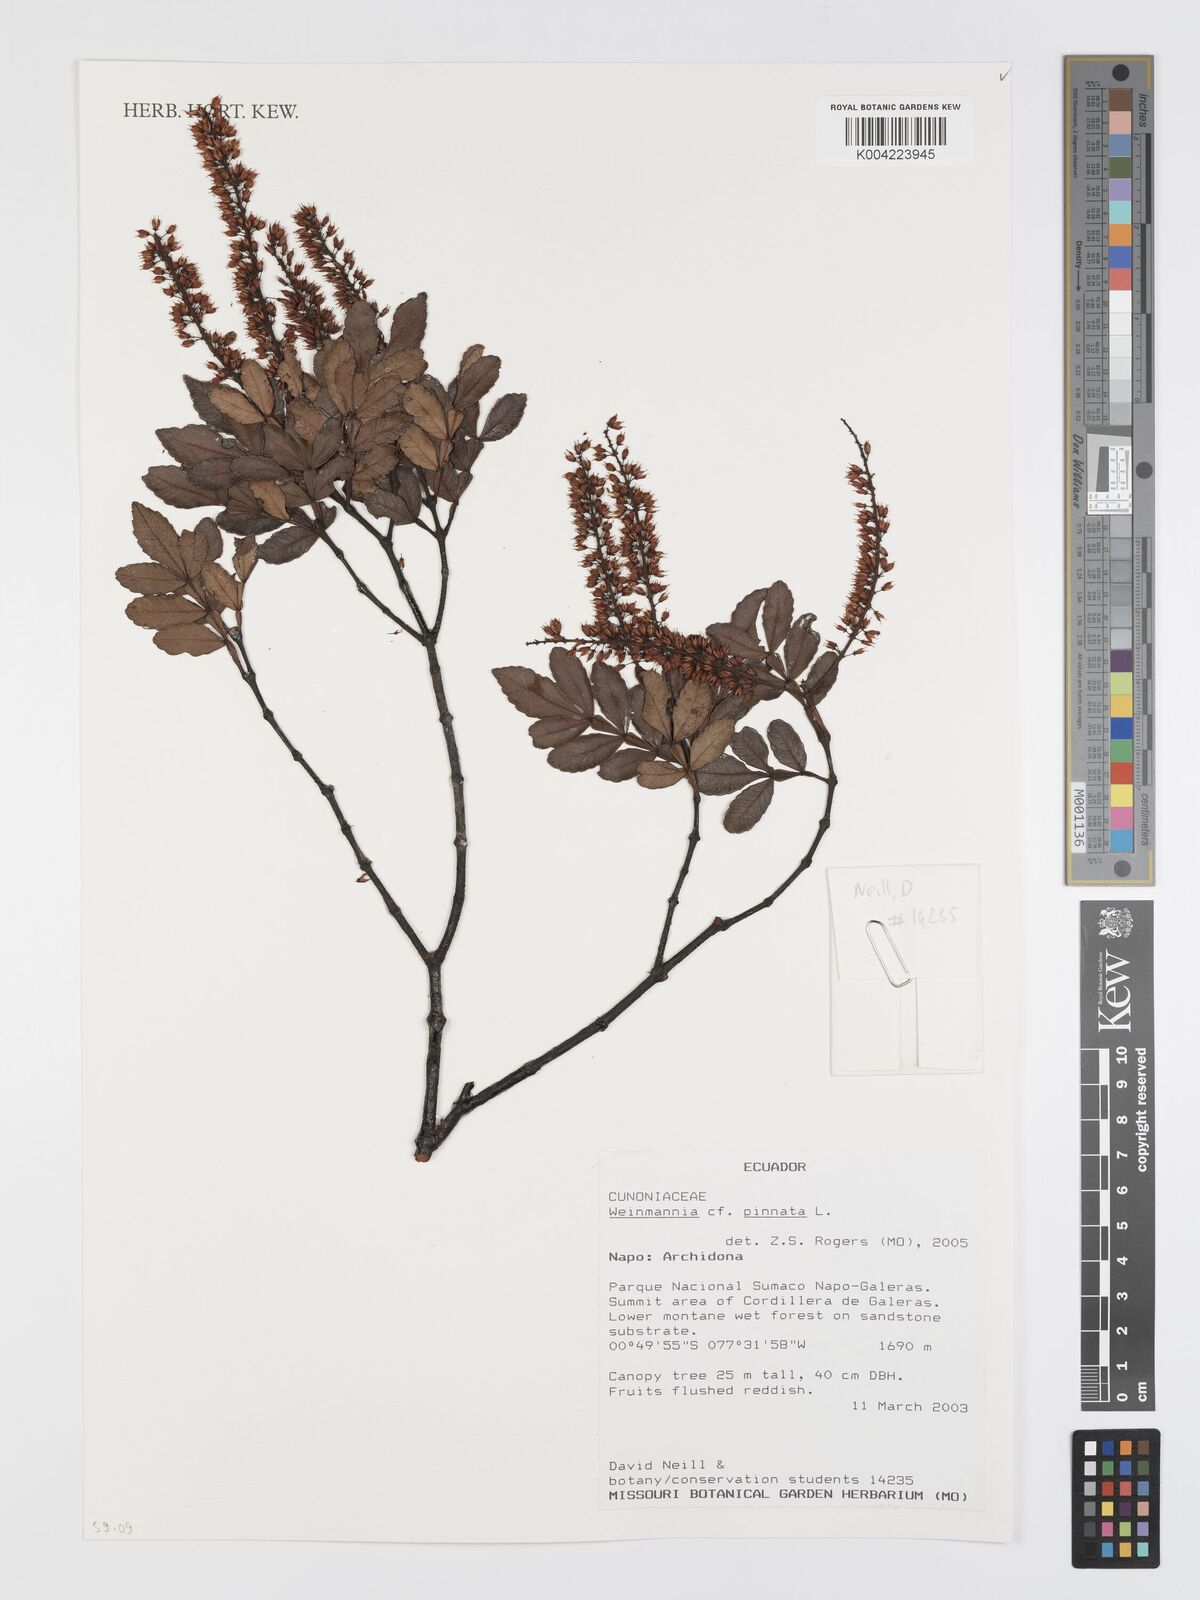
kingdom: Plantae
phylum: Tracheophyta
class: Magnoliopsida
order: Oxalidales
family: Cunoniaceae
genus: Weinmannia
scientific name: Weinmannia pinnata
